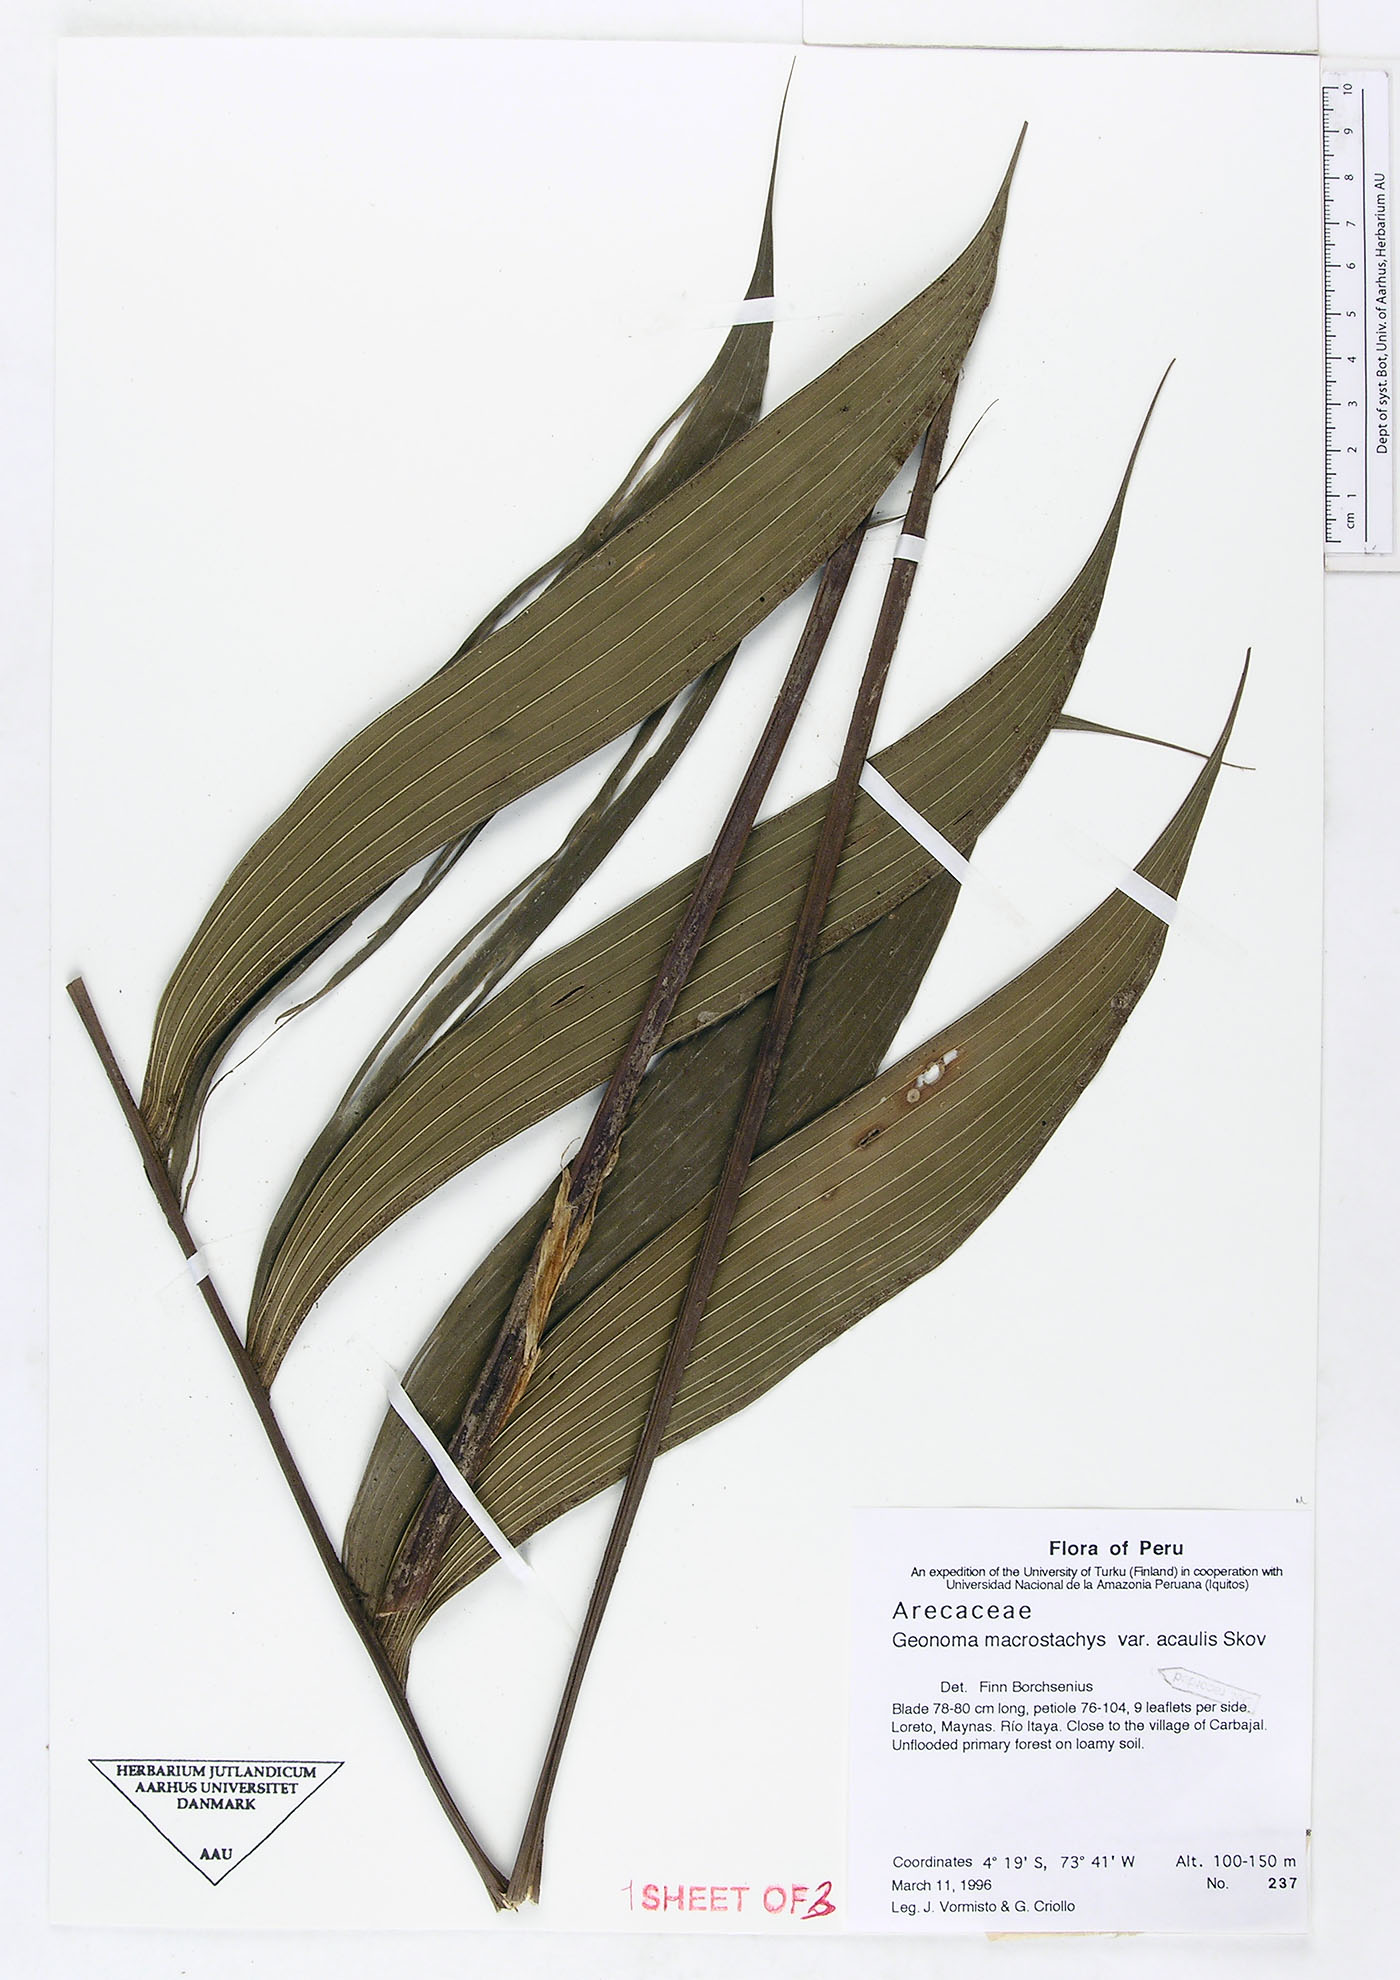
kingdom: Plantae
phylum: Tracheophyta
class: Liliopsida
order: Arecales
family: Arecaceae
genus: Geonoma
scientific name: Geonoma macrostachys
